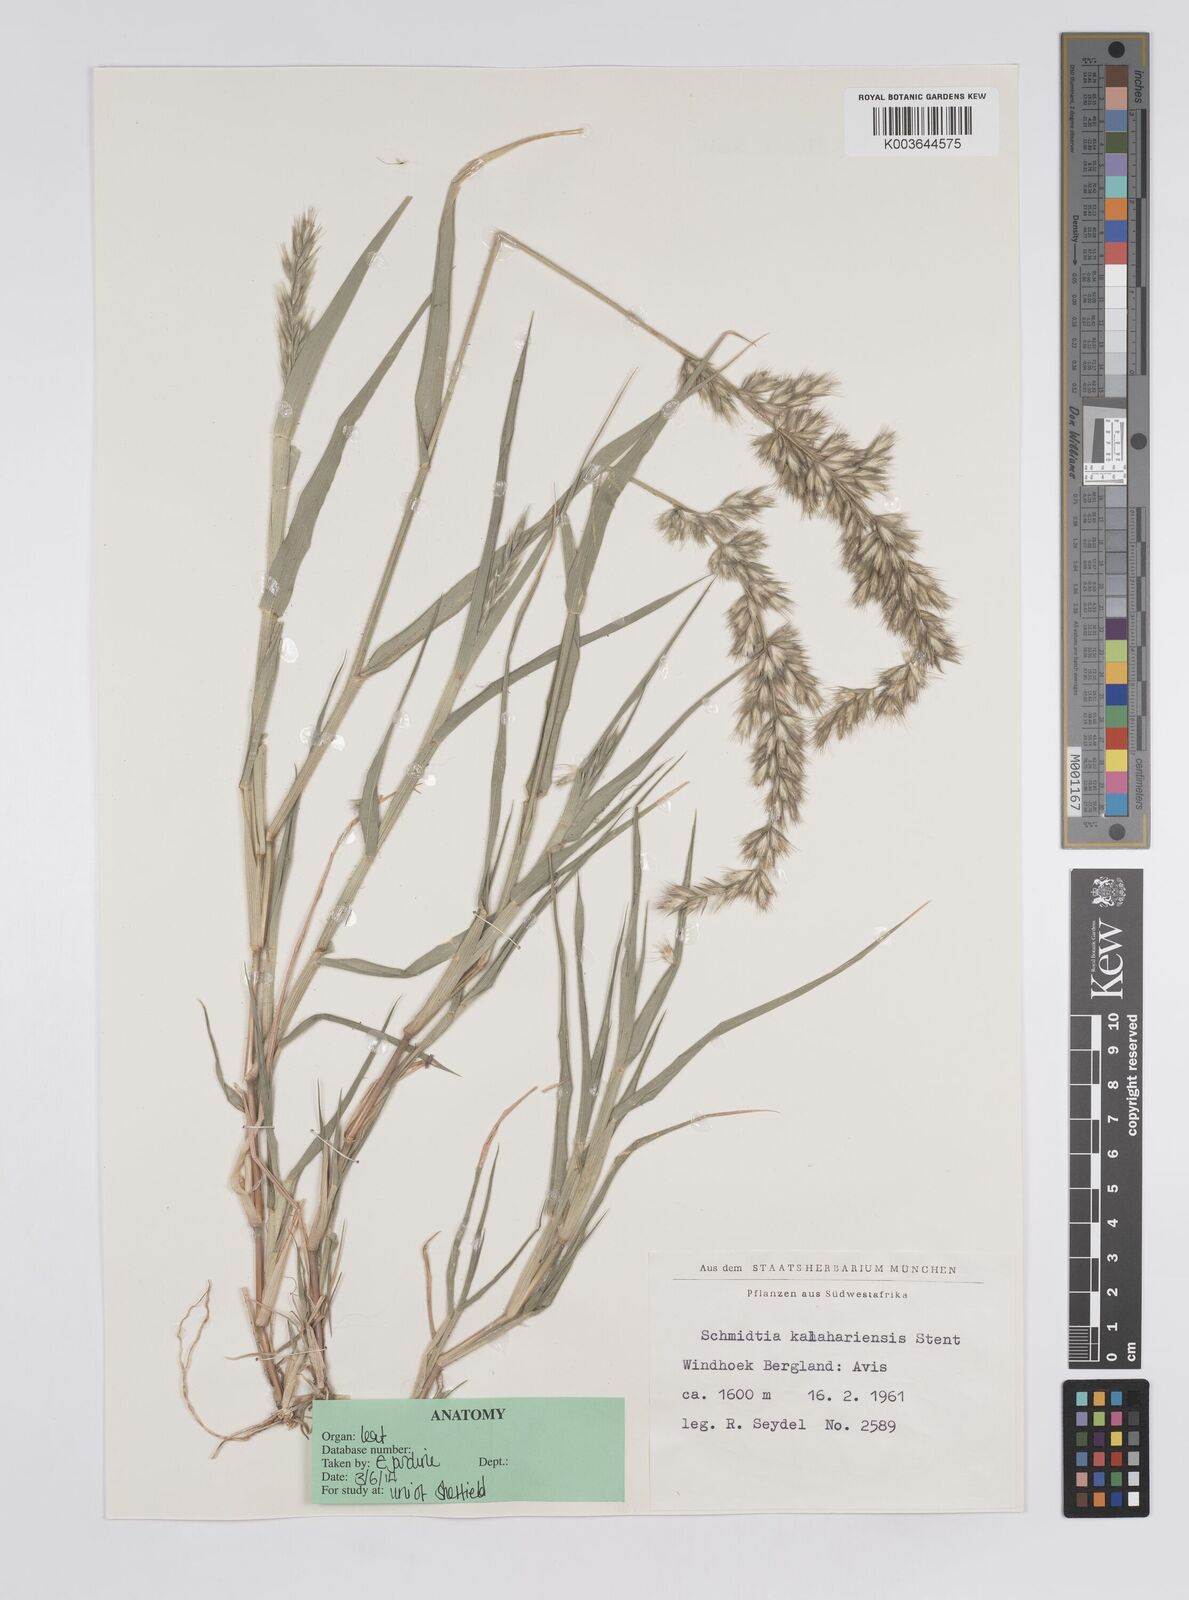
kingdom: Plantae
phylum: Tracheophyta
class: Liliopsida
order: Poales
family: Poaceae
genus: Schmidtia
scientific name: Schmidtia kalahariensis
